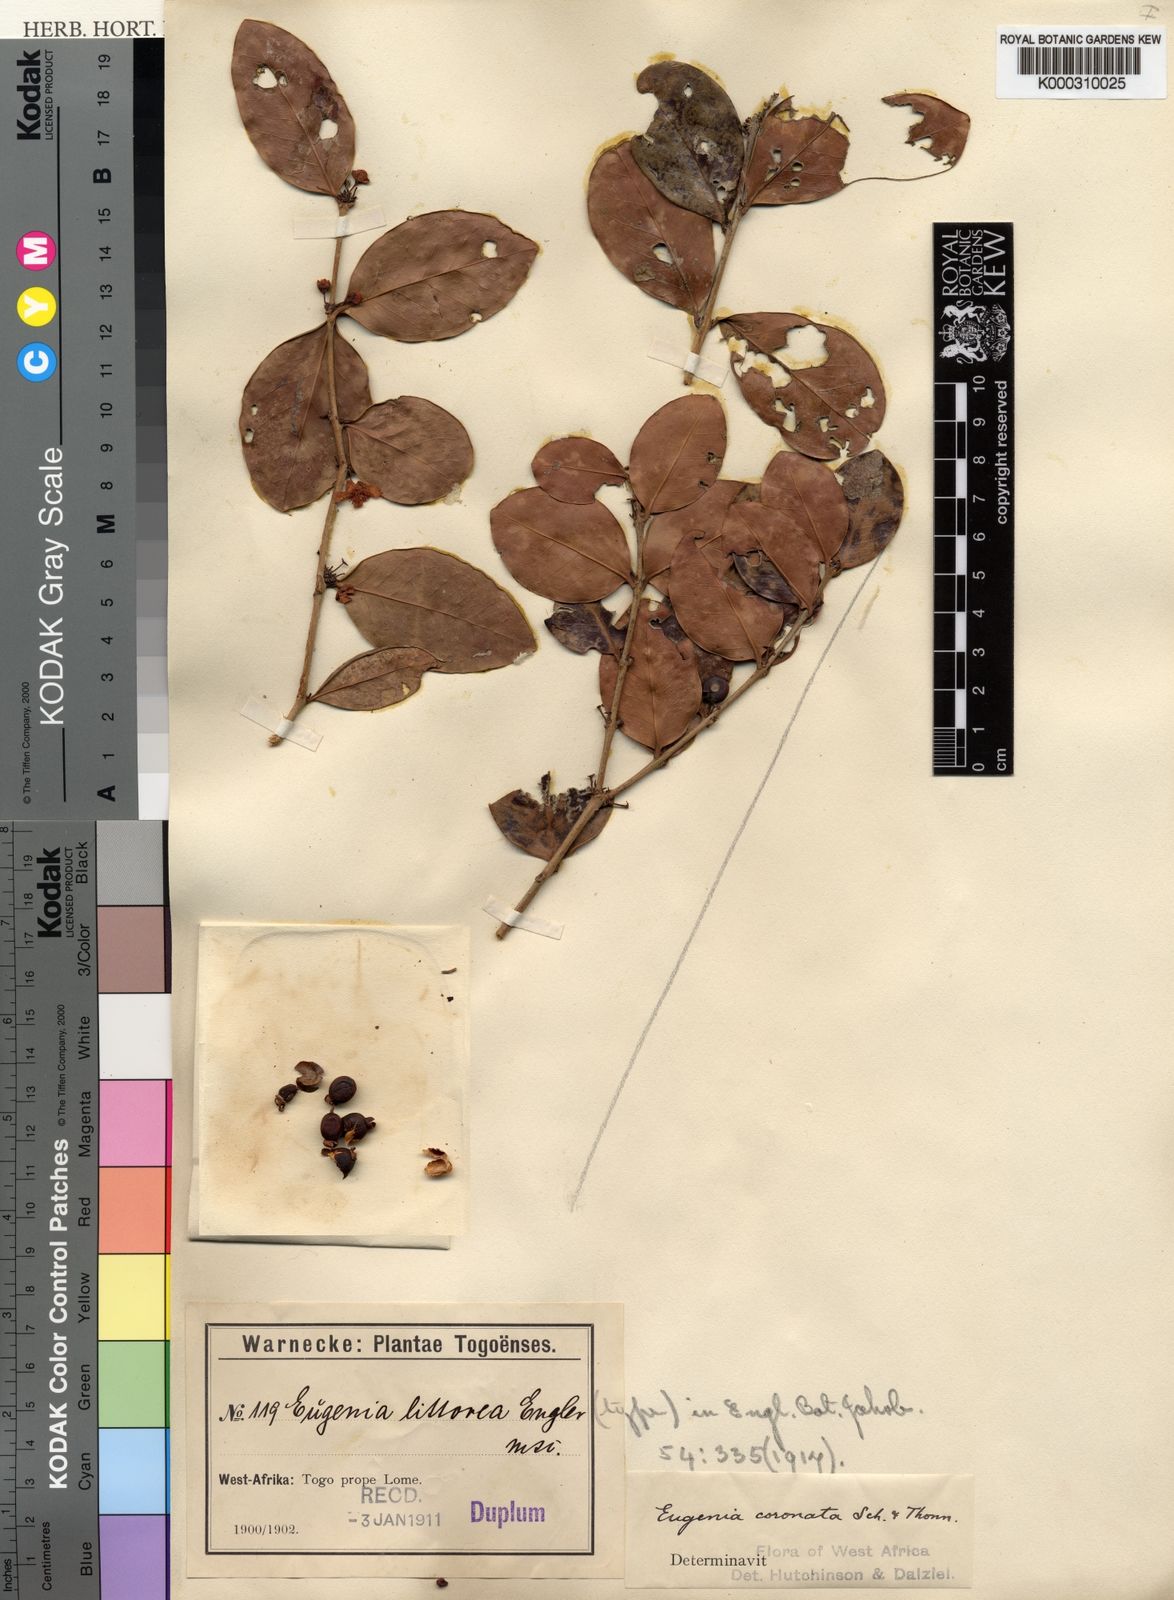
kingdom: Plantae
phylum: Tracheophyta
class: Magnoliopsida
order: Myrtales
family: Myrtaceae
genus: Eugenia
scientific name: Eugenia
